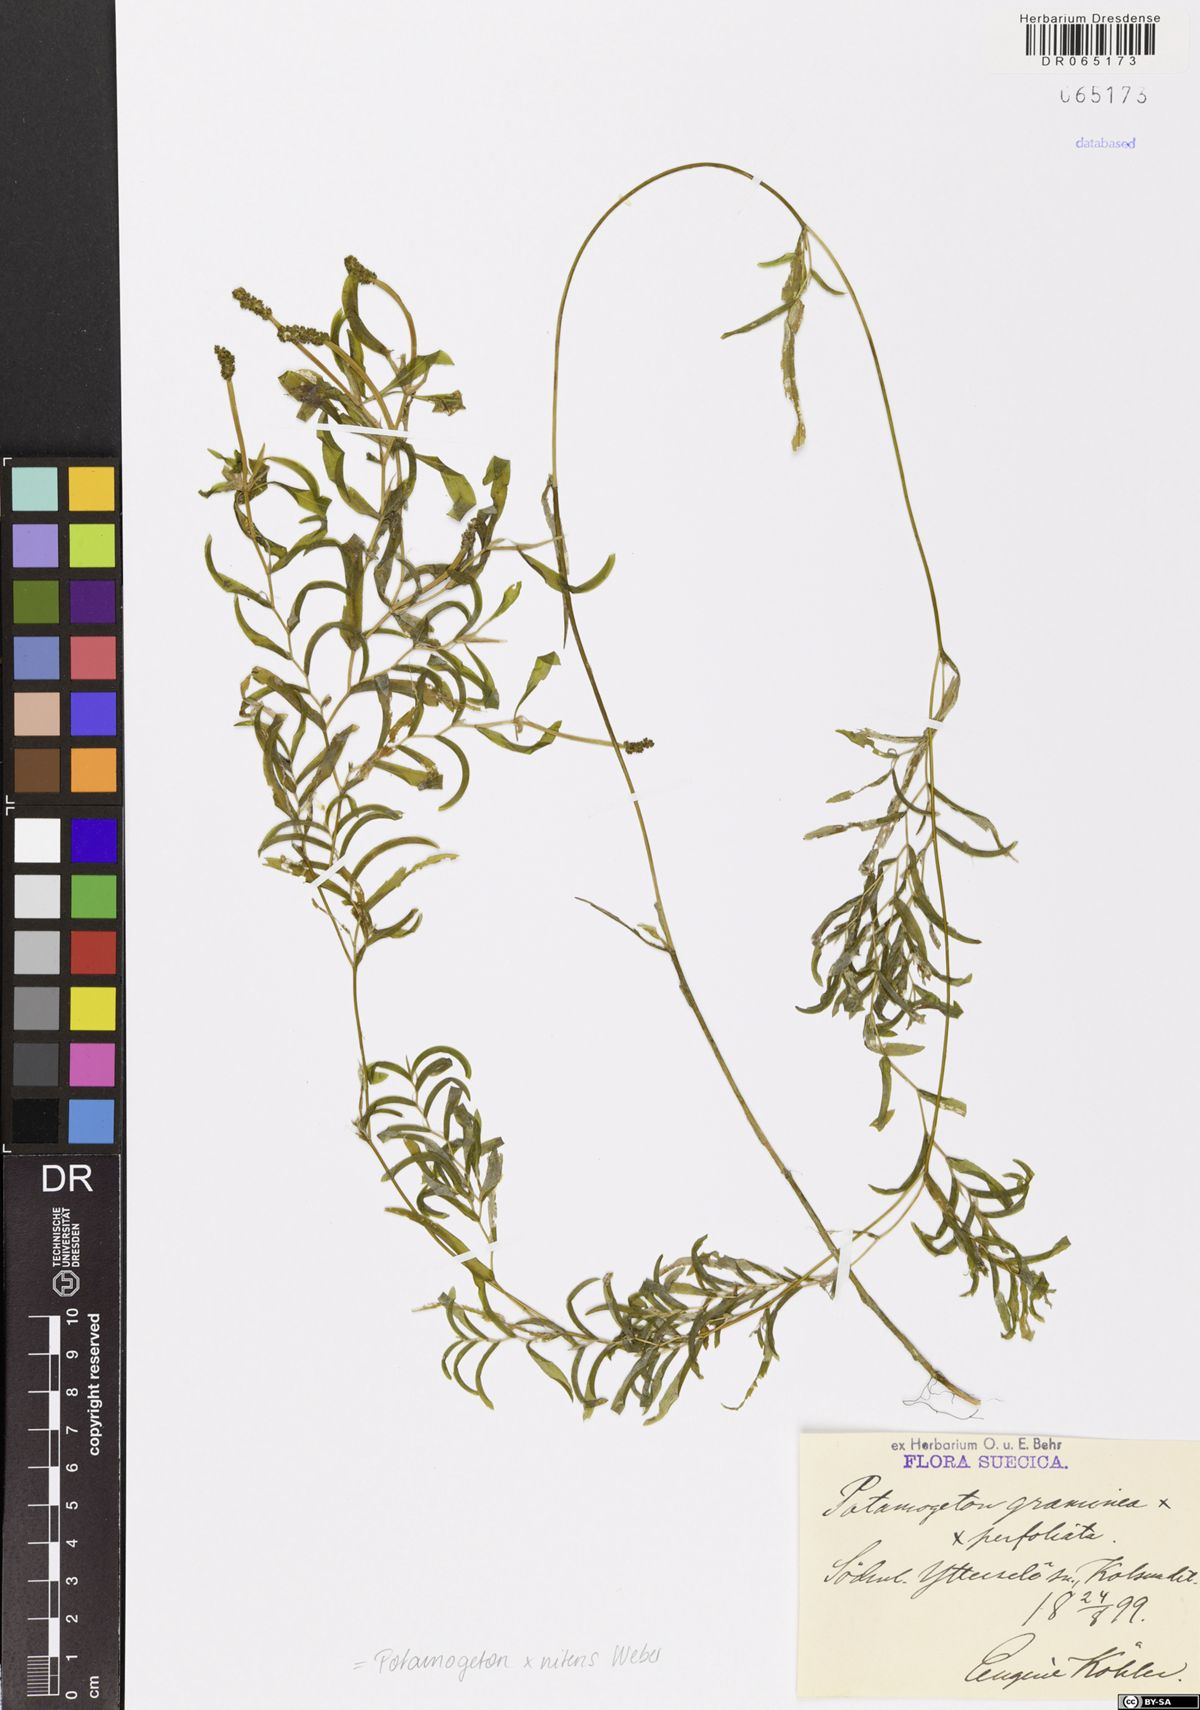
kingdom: Plantae
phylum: Tracheophyta
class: Liliopsida
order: Alismatales
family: Potamogetonaceae
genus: Potamogeton
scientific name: Potamogeton nitens
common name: Pondweed
